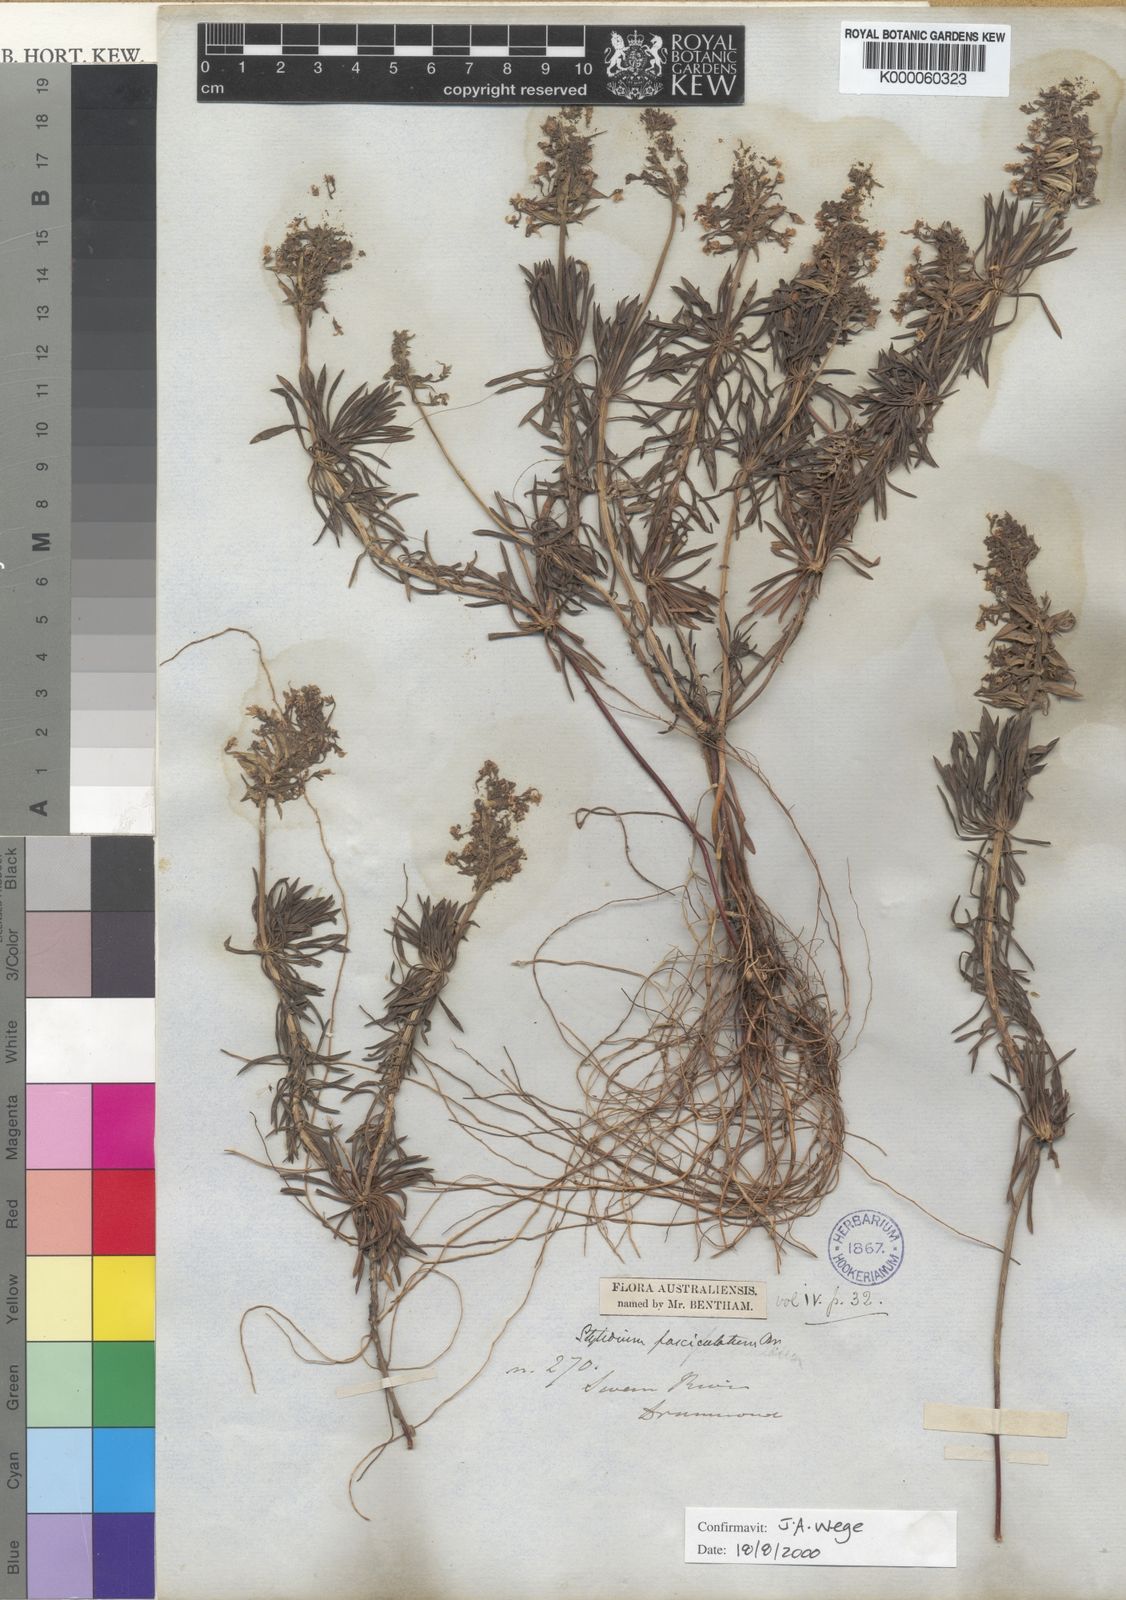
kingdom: Plantae
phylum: Tracheophyta
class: Magnoliopsida
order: Asterales
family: Stylidiaceae
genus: Stylidium
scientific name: Stylidium fasciculatum
